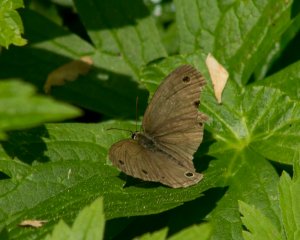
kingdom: Animalia
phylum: Arthropoda
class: Insecta
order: Lepidoptera
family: Nymphalidae
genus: Euptychia
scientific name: Euptychia cymela
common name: Little Wood Satyr
